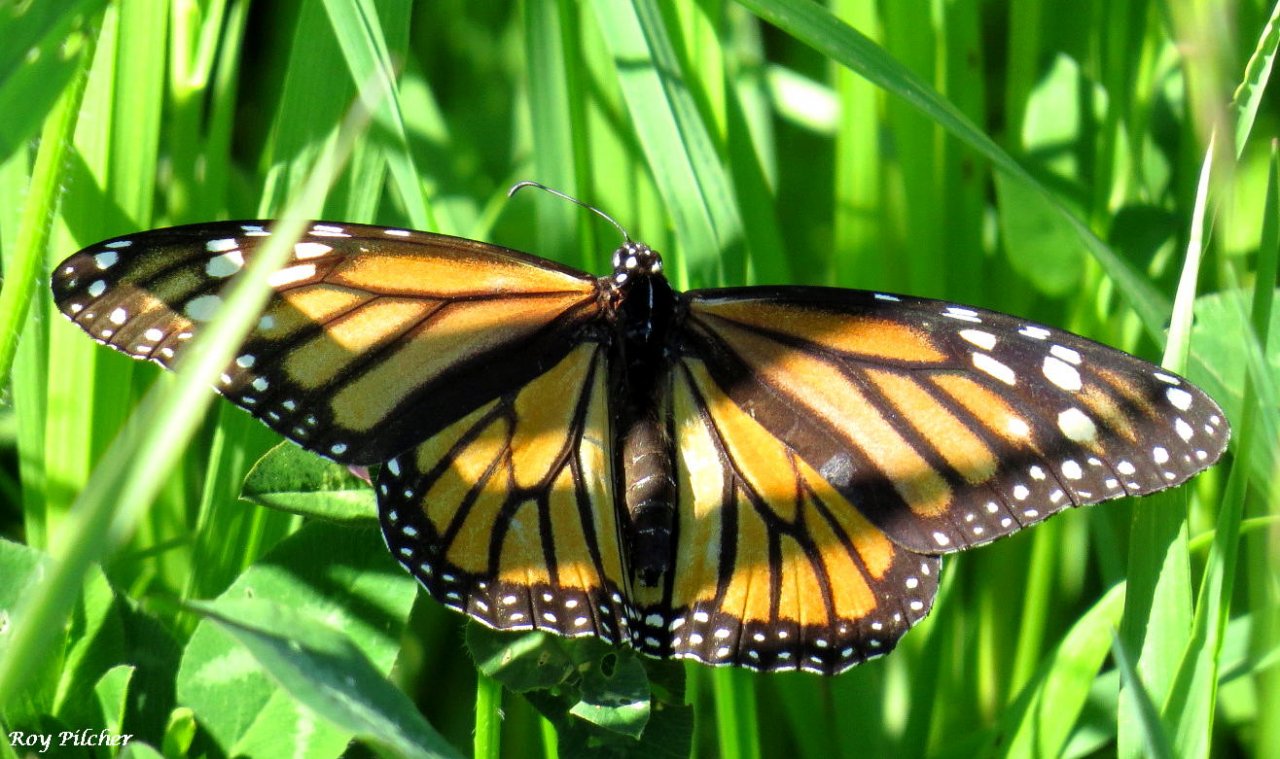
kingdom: Animalia
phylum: Arthropoda
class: Insecta
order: Lepidoptera
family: Nymphalidae
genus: Danaus
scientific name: Danaus plexippus
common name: Monarch
